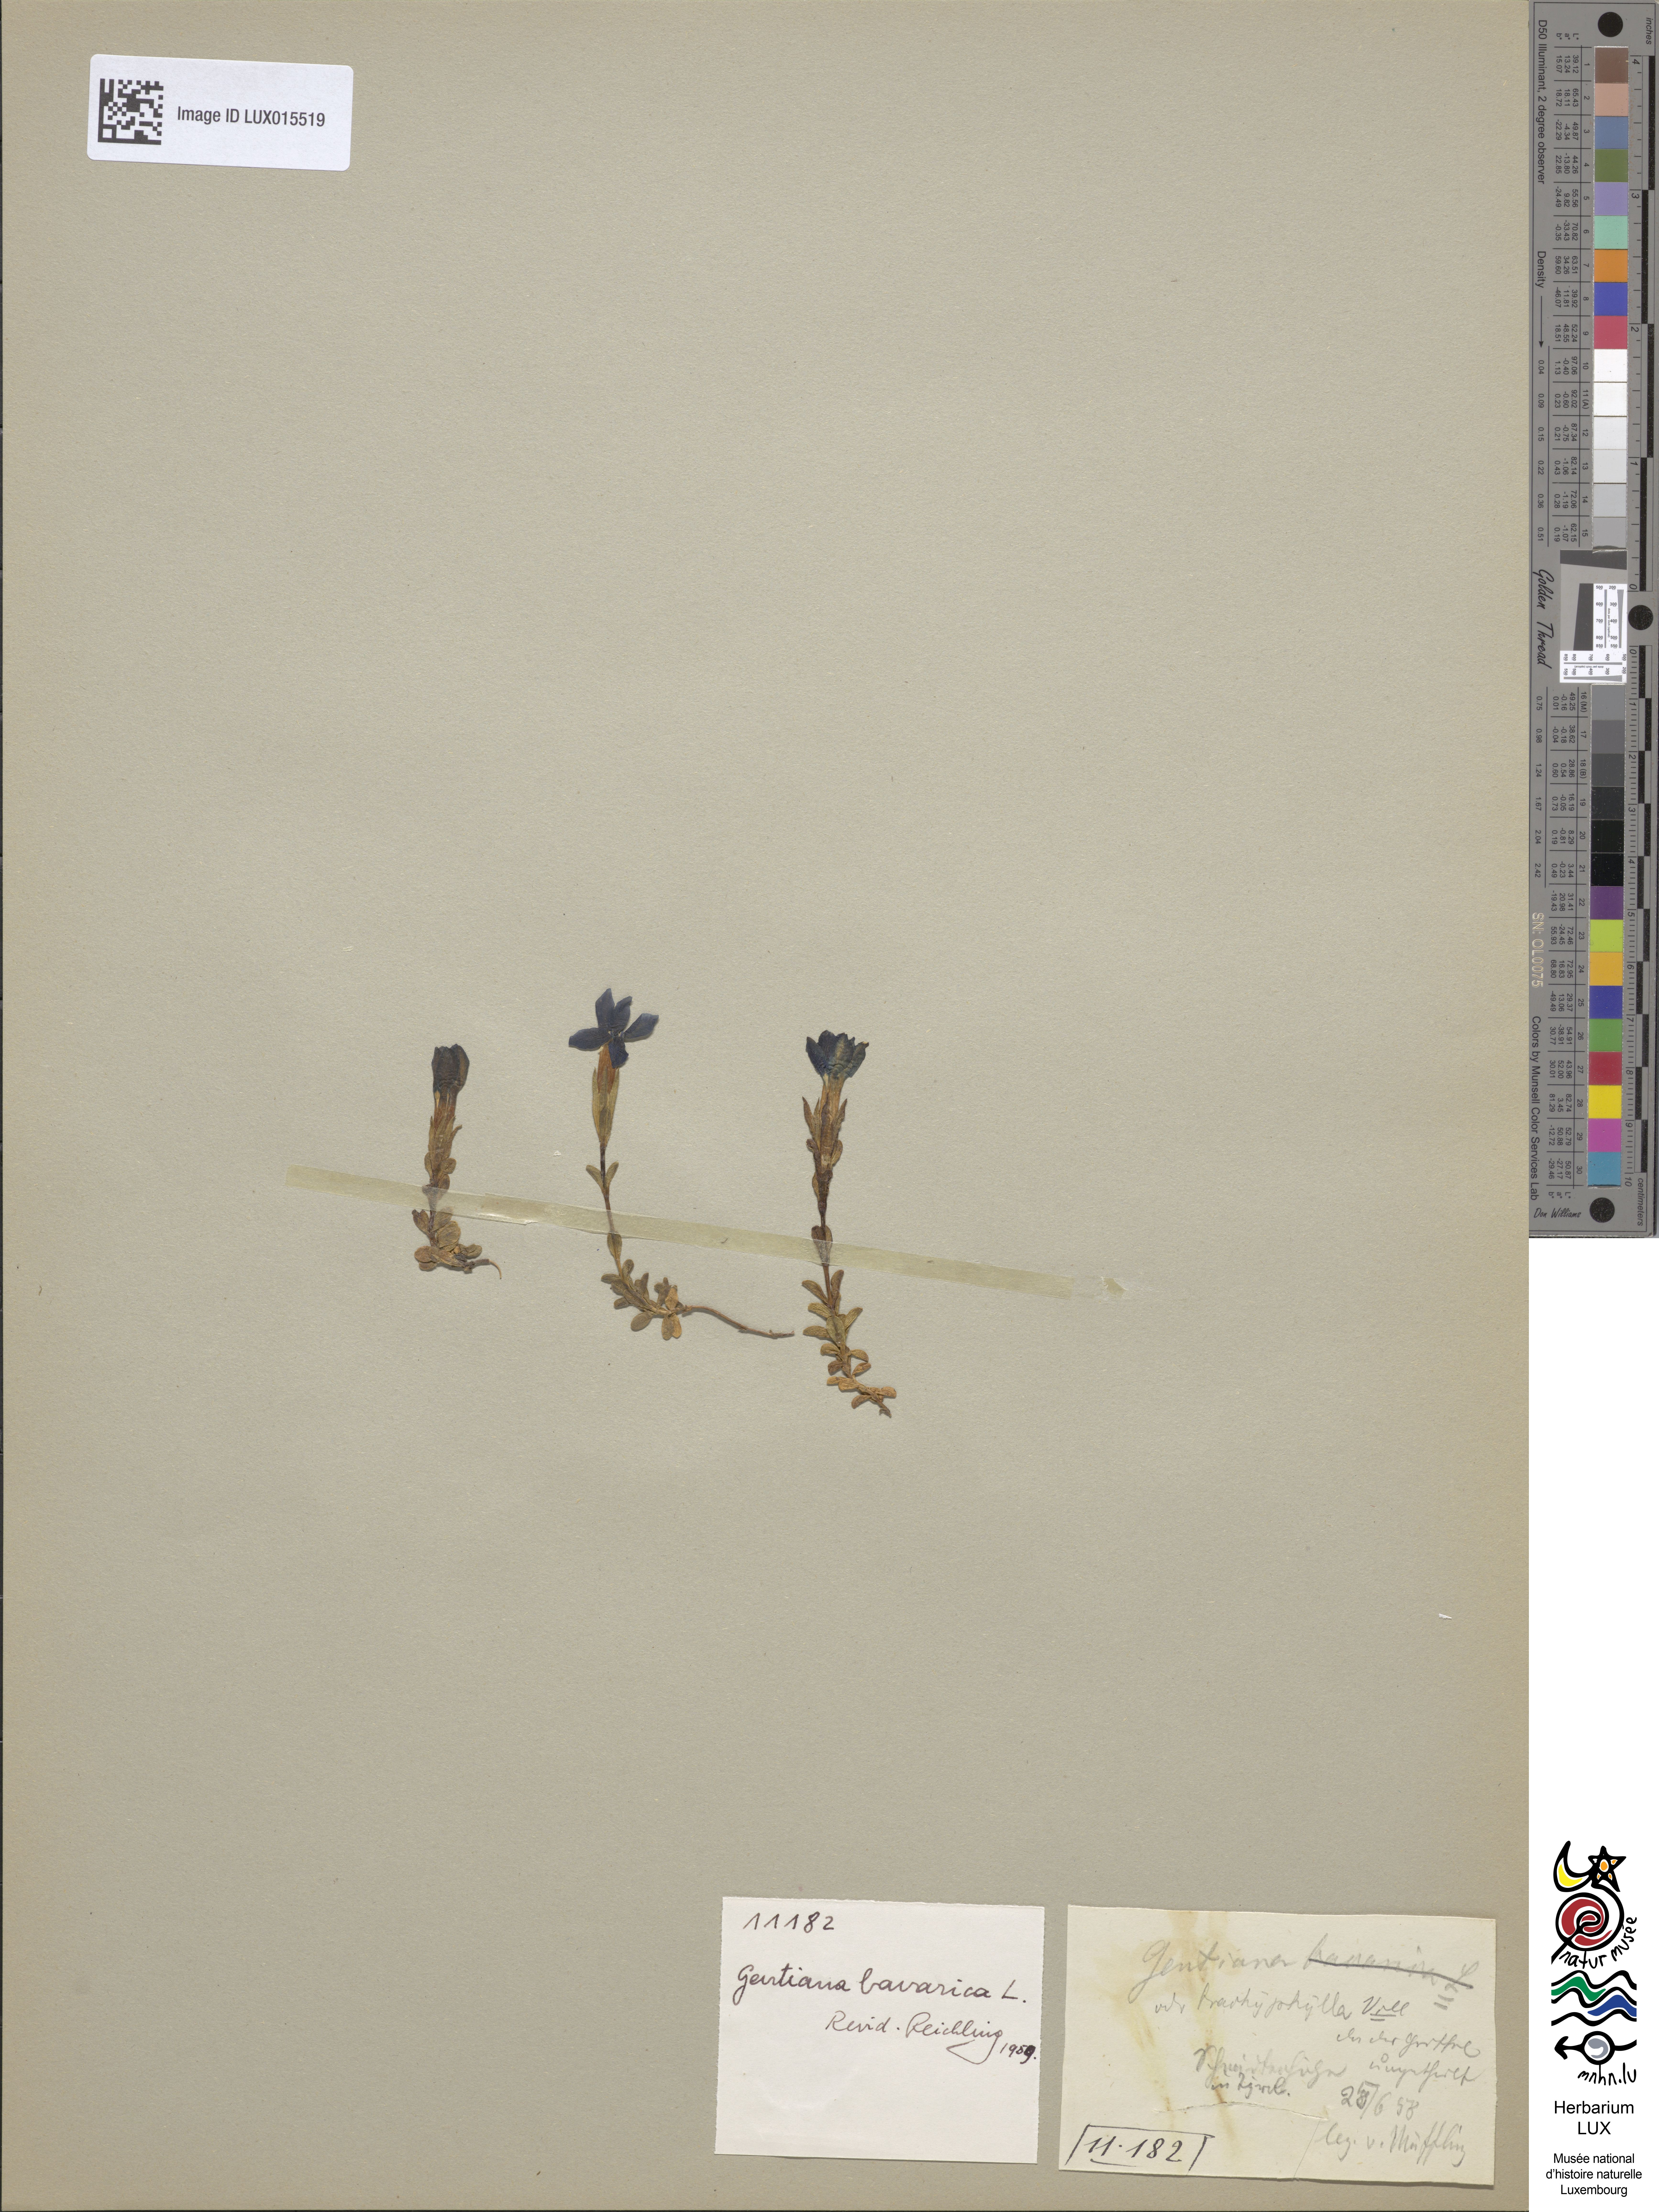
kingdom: Plantae
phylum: Tracheophyta
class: Magnoliopsida
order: Gentianales
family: Gentianaceae
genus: Gentiana
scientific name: Gentiana brachyphylla
